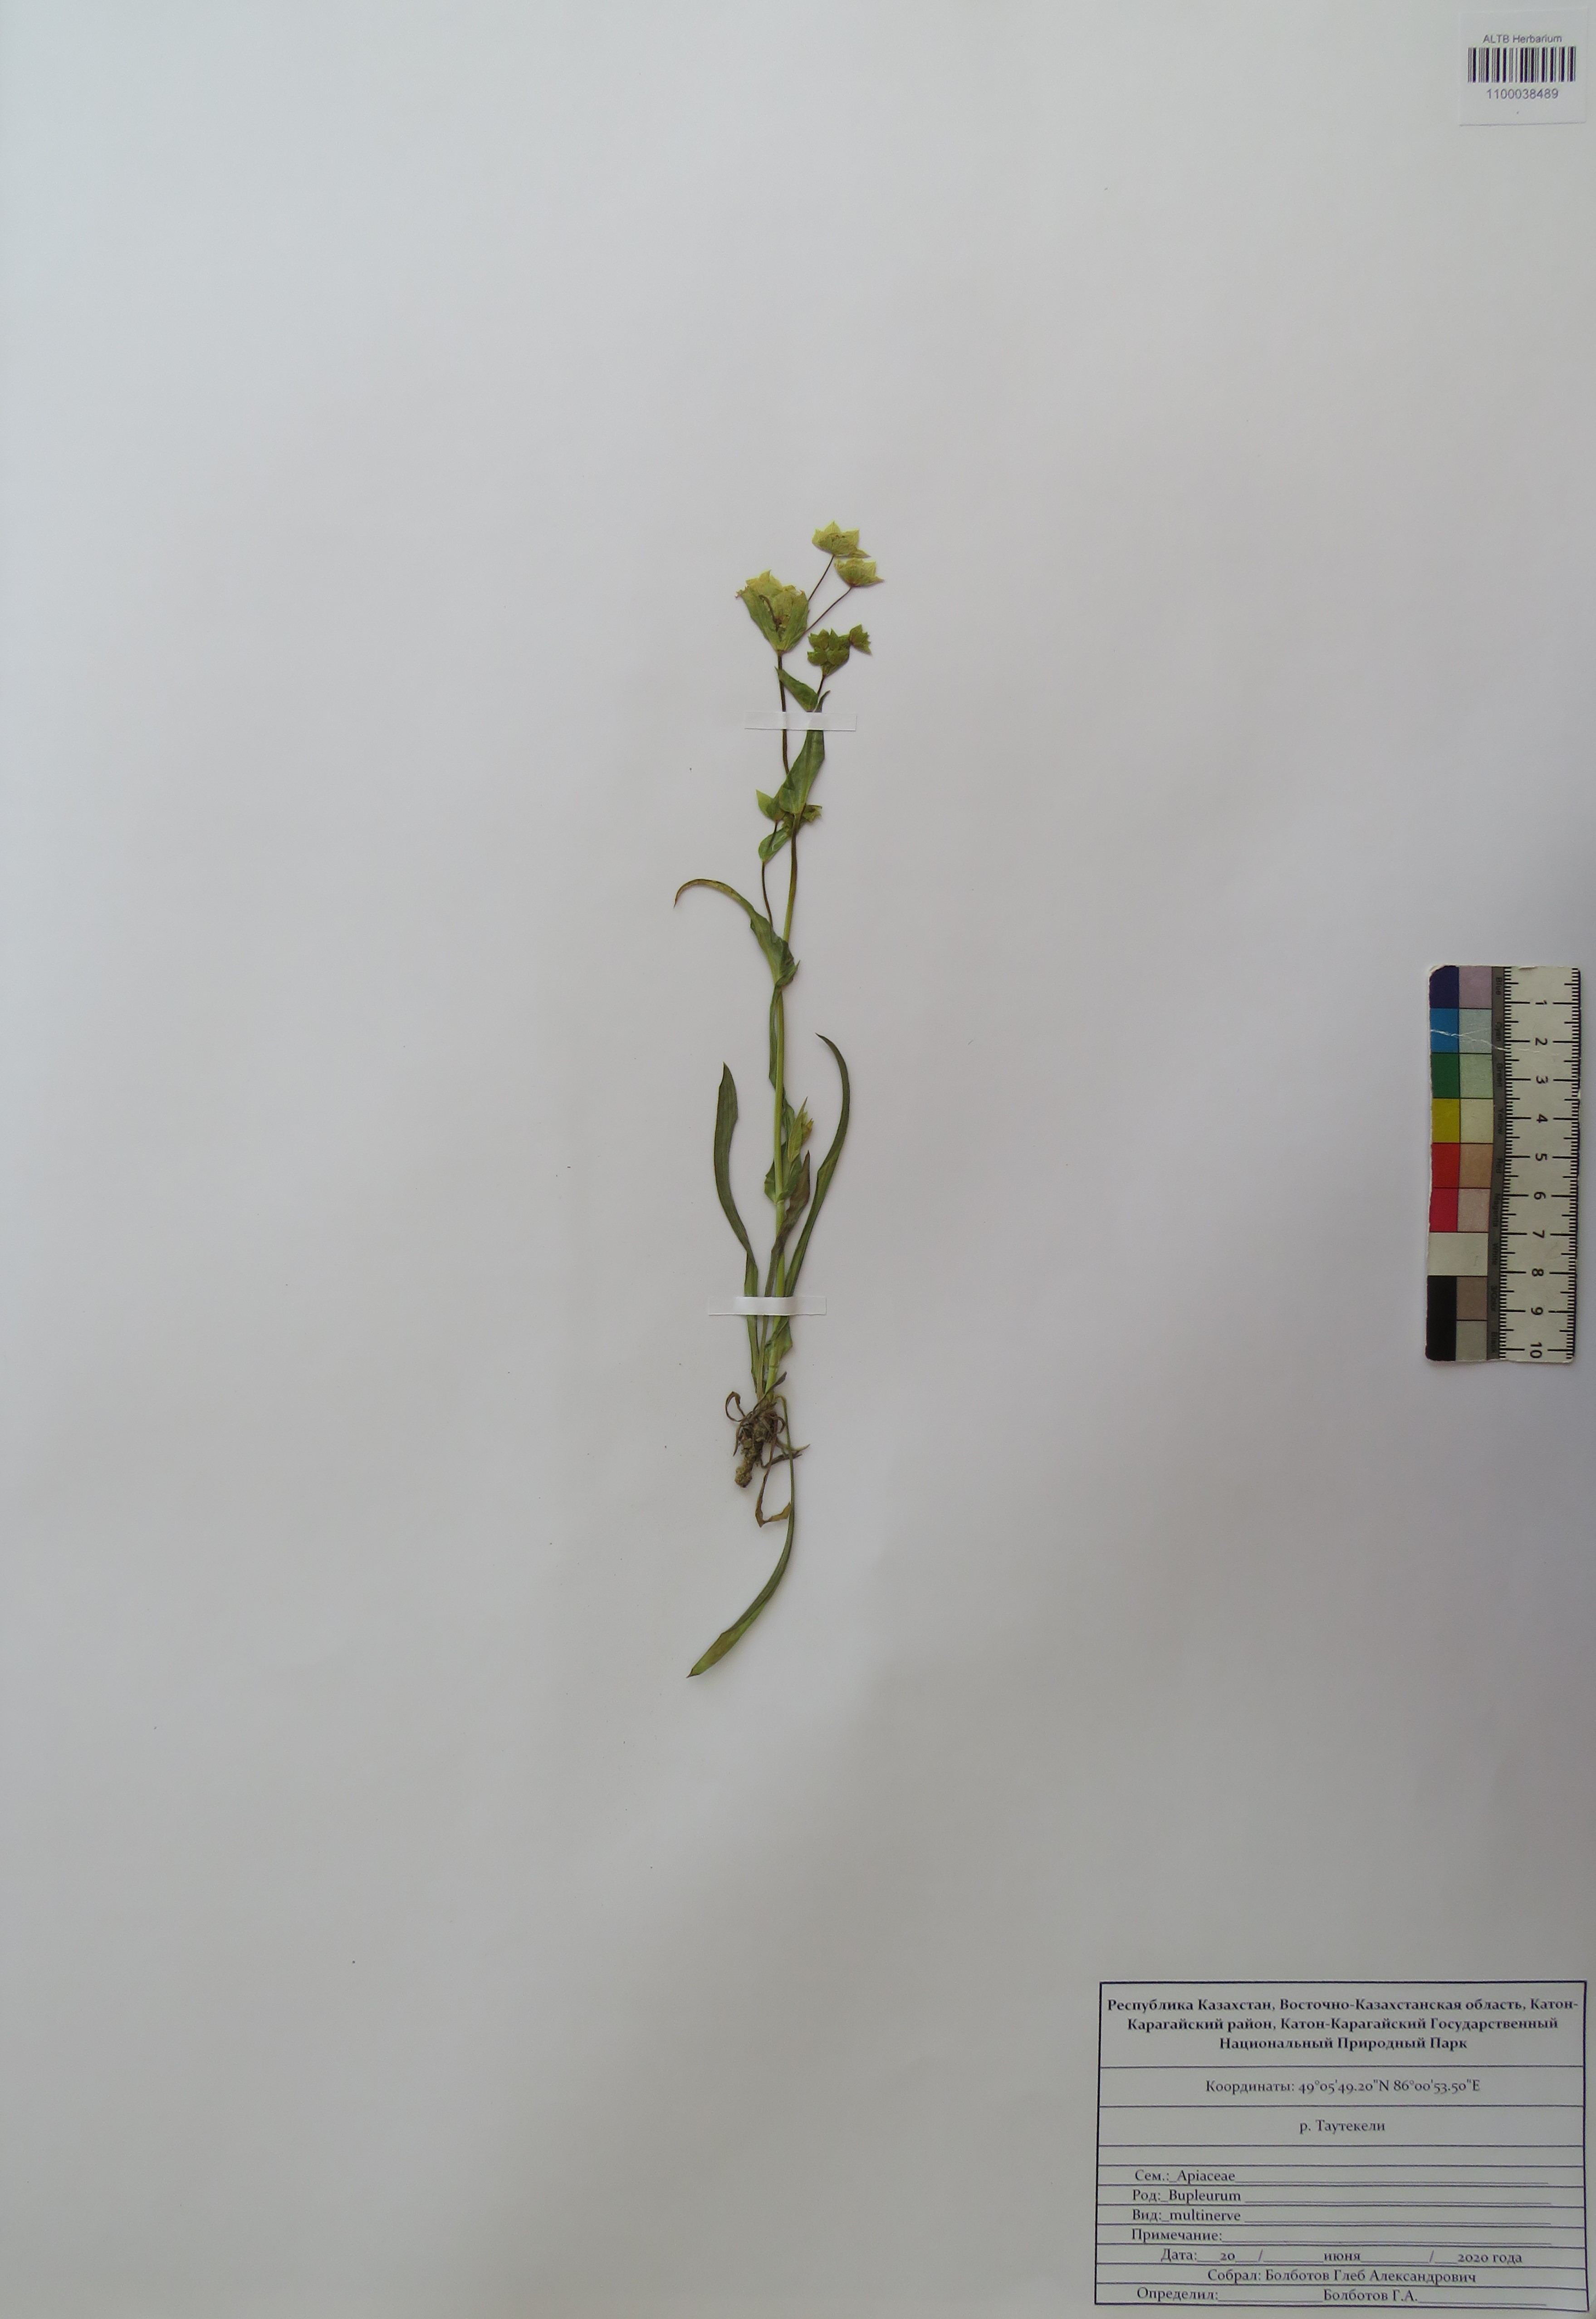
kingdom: Plantae
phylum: Tracheophyta
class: Magnoliopsida
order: Apiales
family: Apiaceae
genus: Bupleurum
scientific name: Bupleurum multinerve
